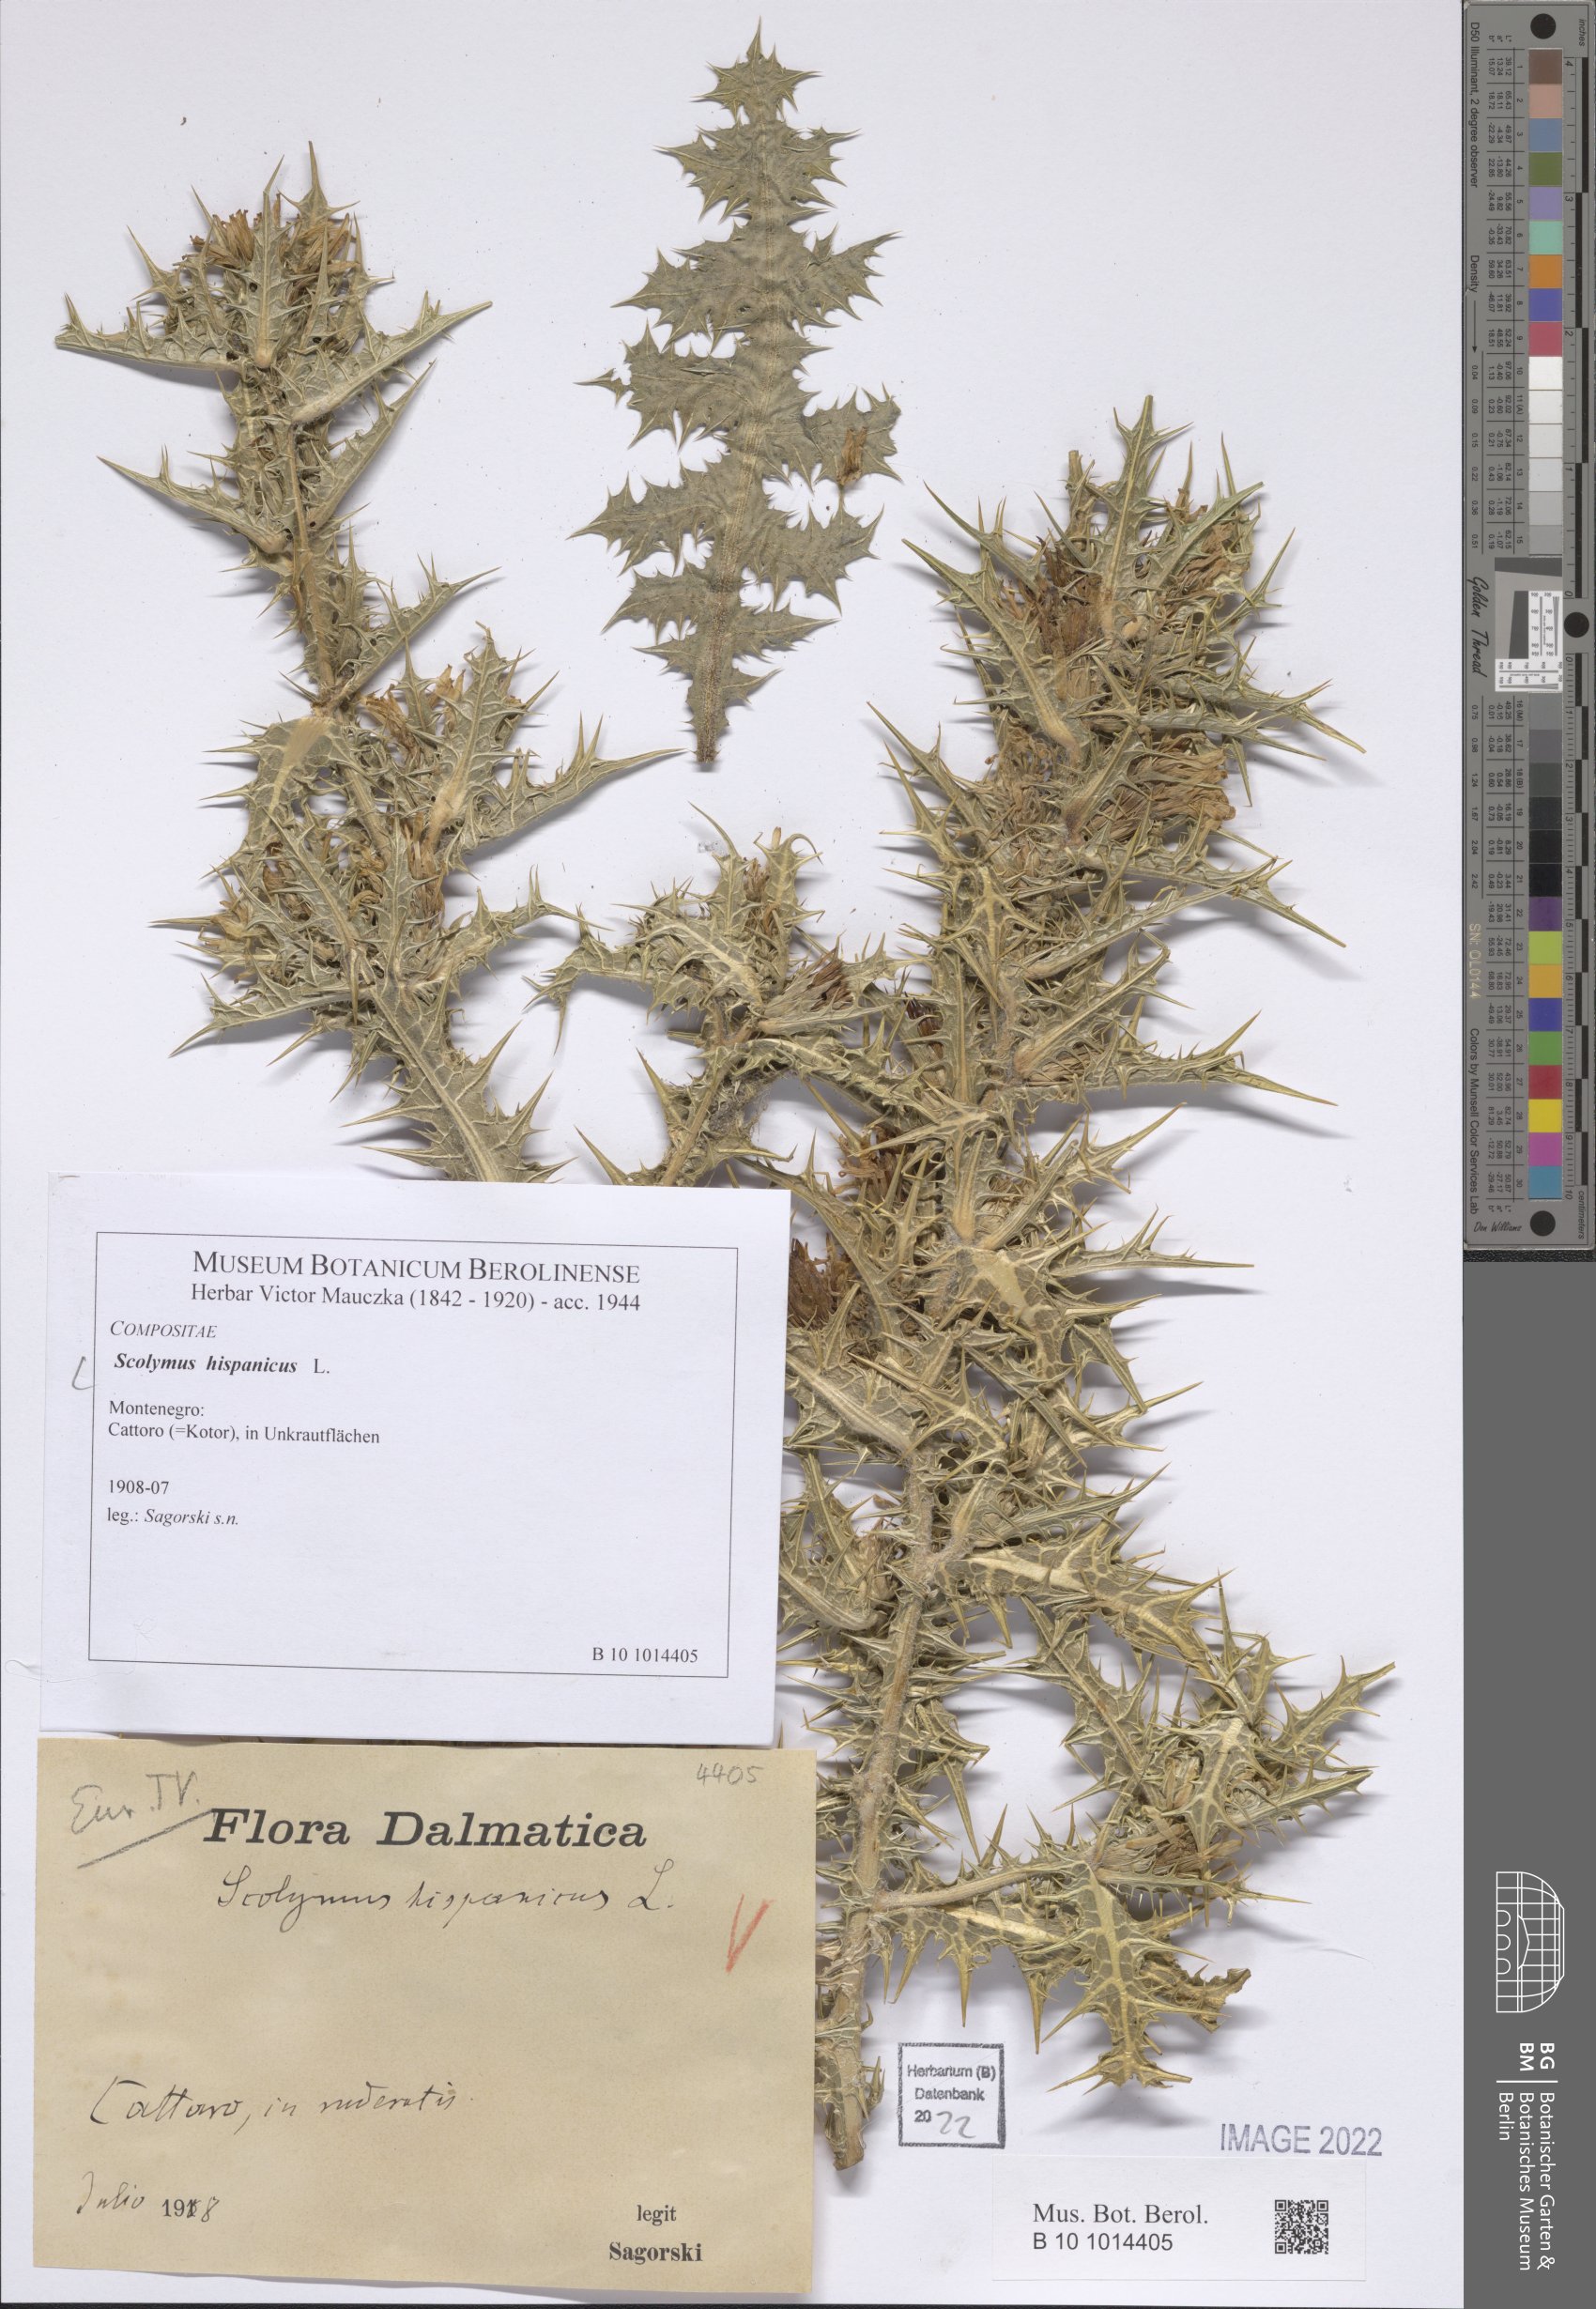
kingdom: Plantae
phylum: Tracheophyta
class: Magnoliopsida
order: Asterales
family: Asteraceae
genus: Scolymus
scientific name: Scolymus hispanicus
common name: Golden thistle
